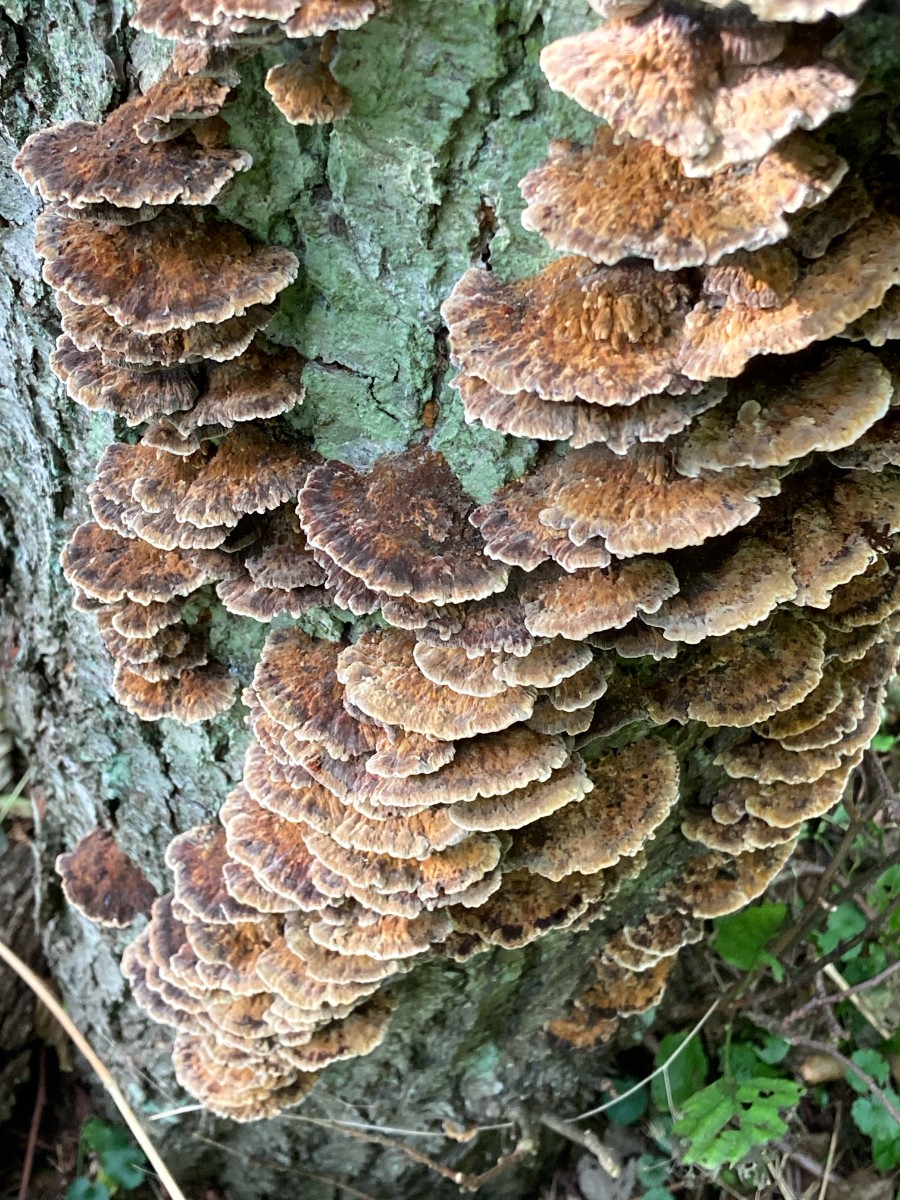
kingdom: Fungi
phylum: Basidiomycota
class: Agaricomycetes
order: Hymenochaetales
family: Hymenochaetaceae
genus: Xanthoporia
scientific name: Xanthoporia radiata
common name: elle-spejlporesvamp
